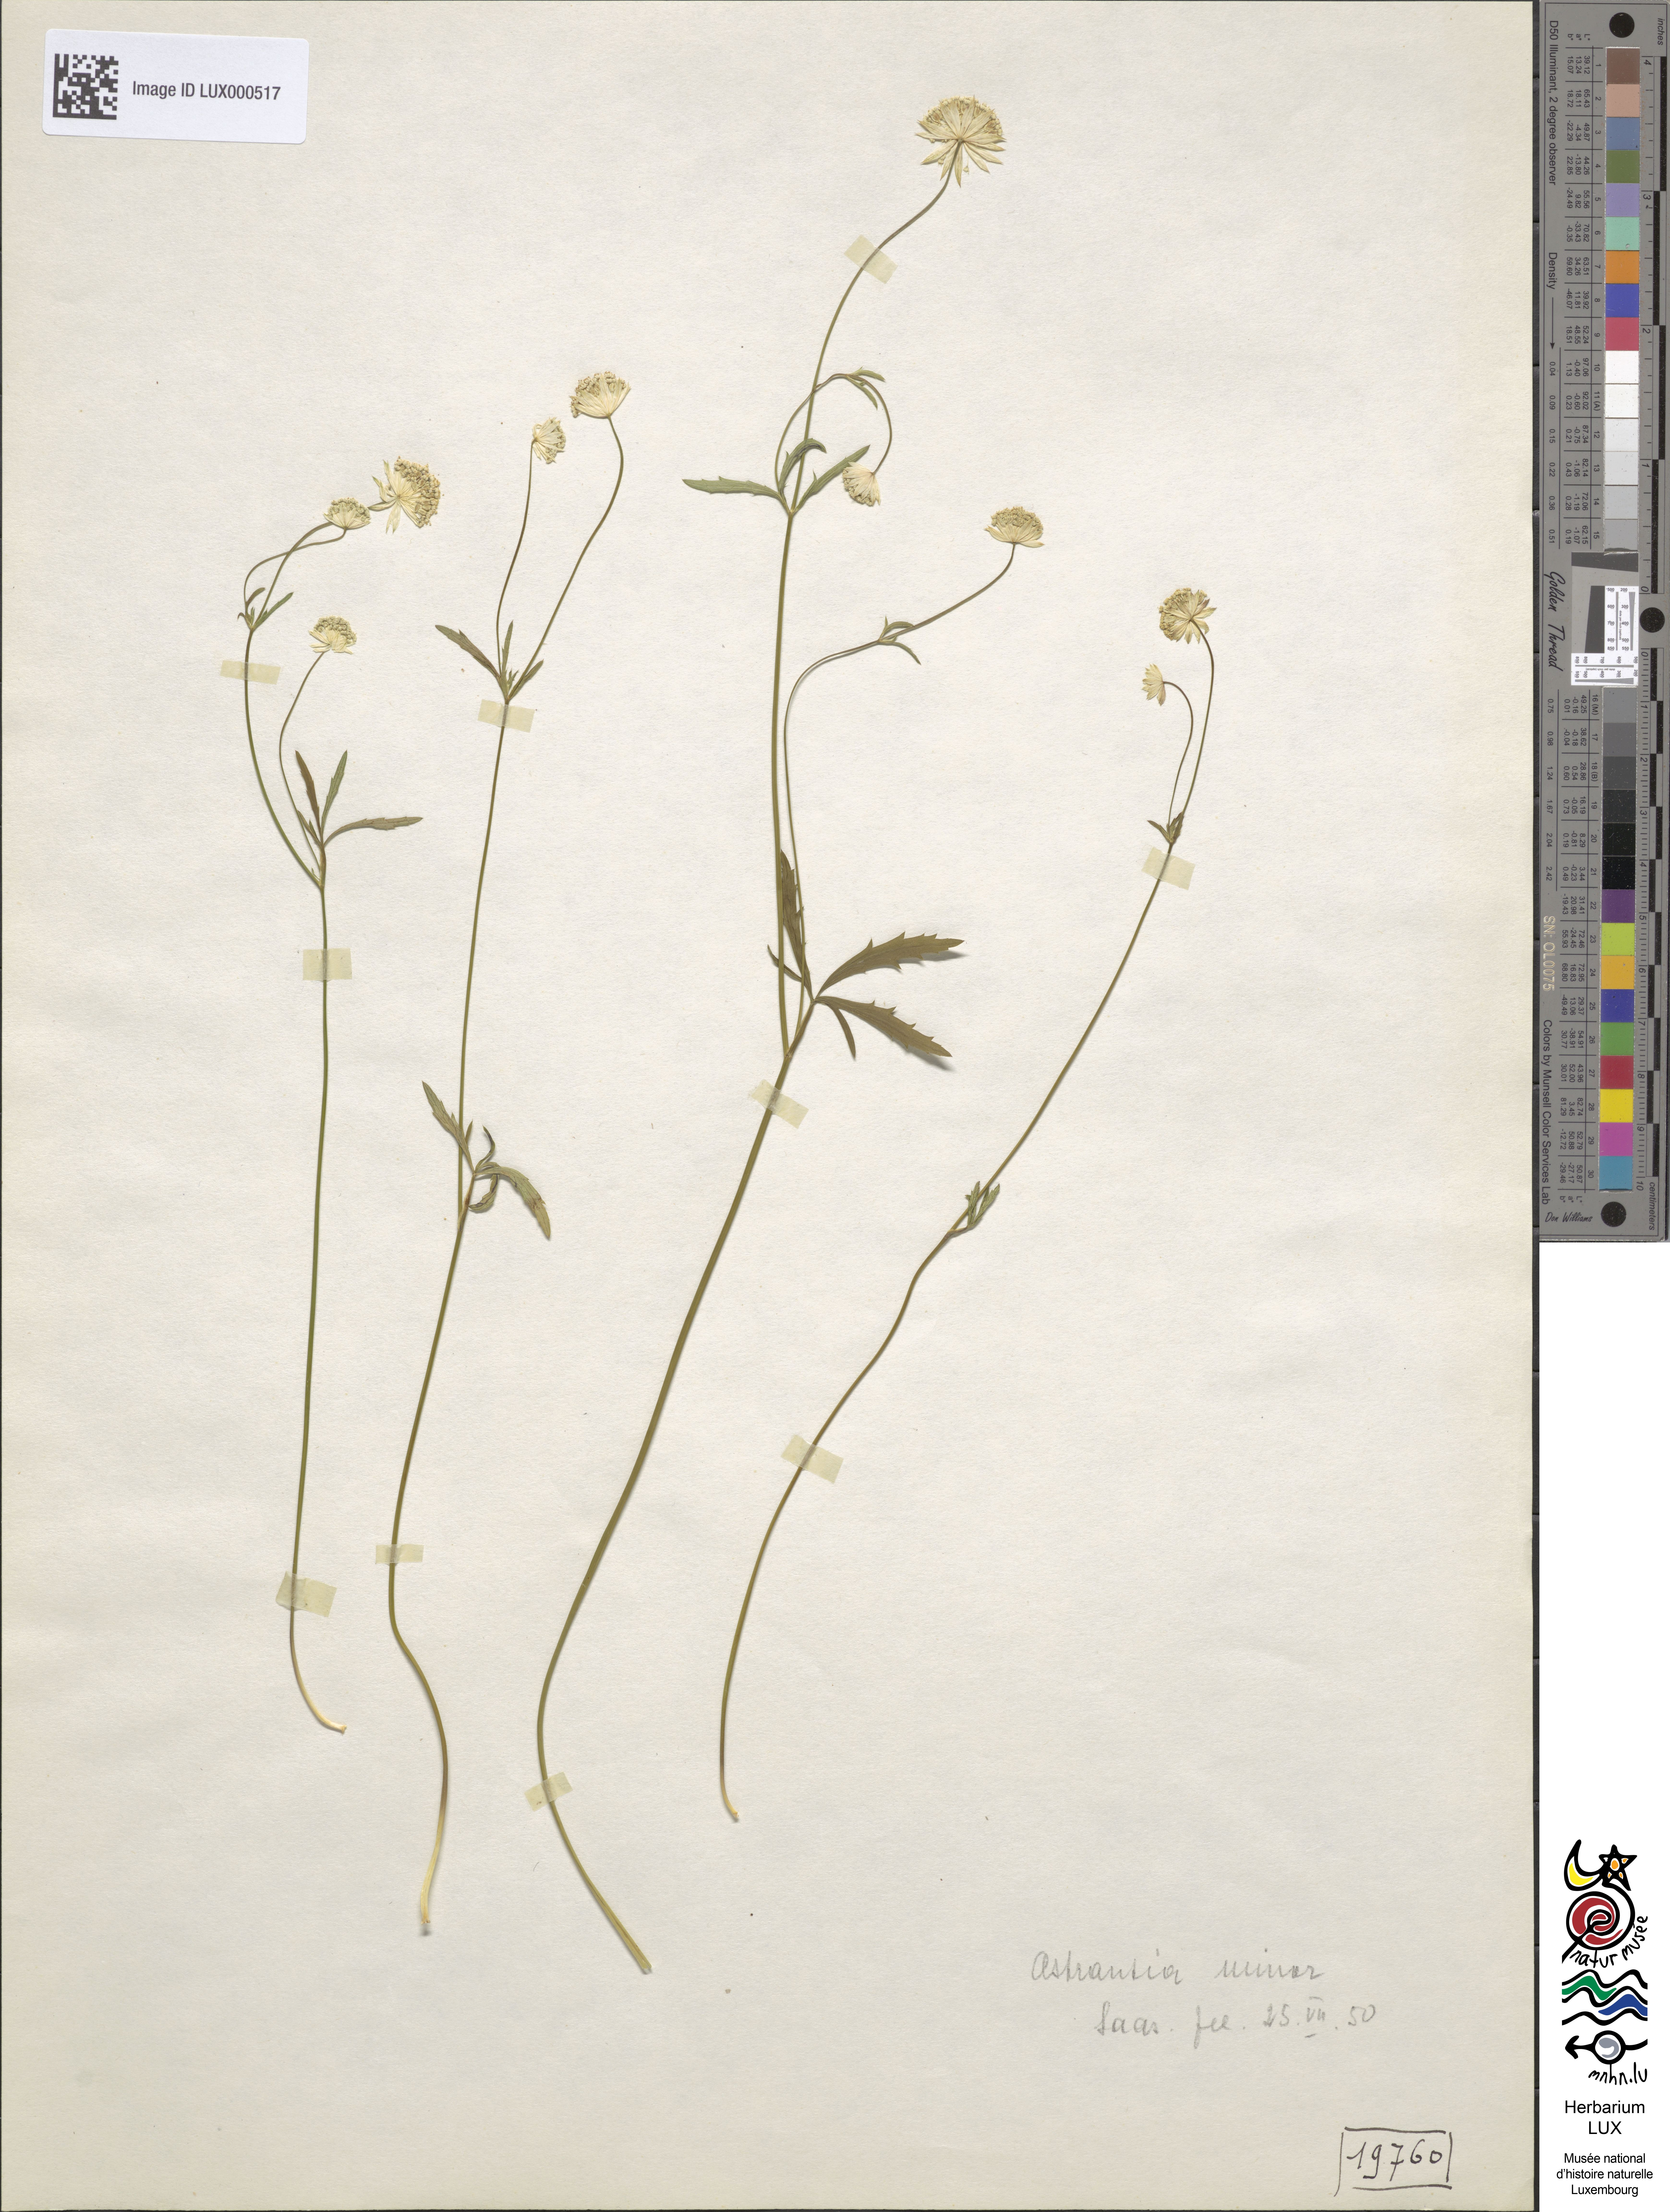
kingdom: Plantae
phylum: Tracheophyta
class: Magnoliopsida
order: Apiales
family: Apiaceae
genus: Astrantia
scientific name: Astrantia minor
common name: Lesser masterwort
